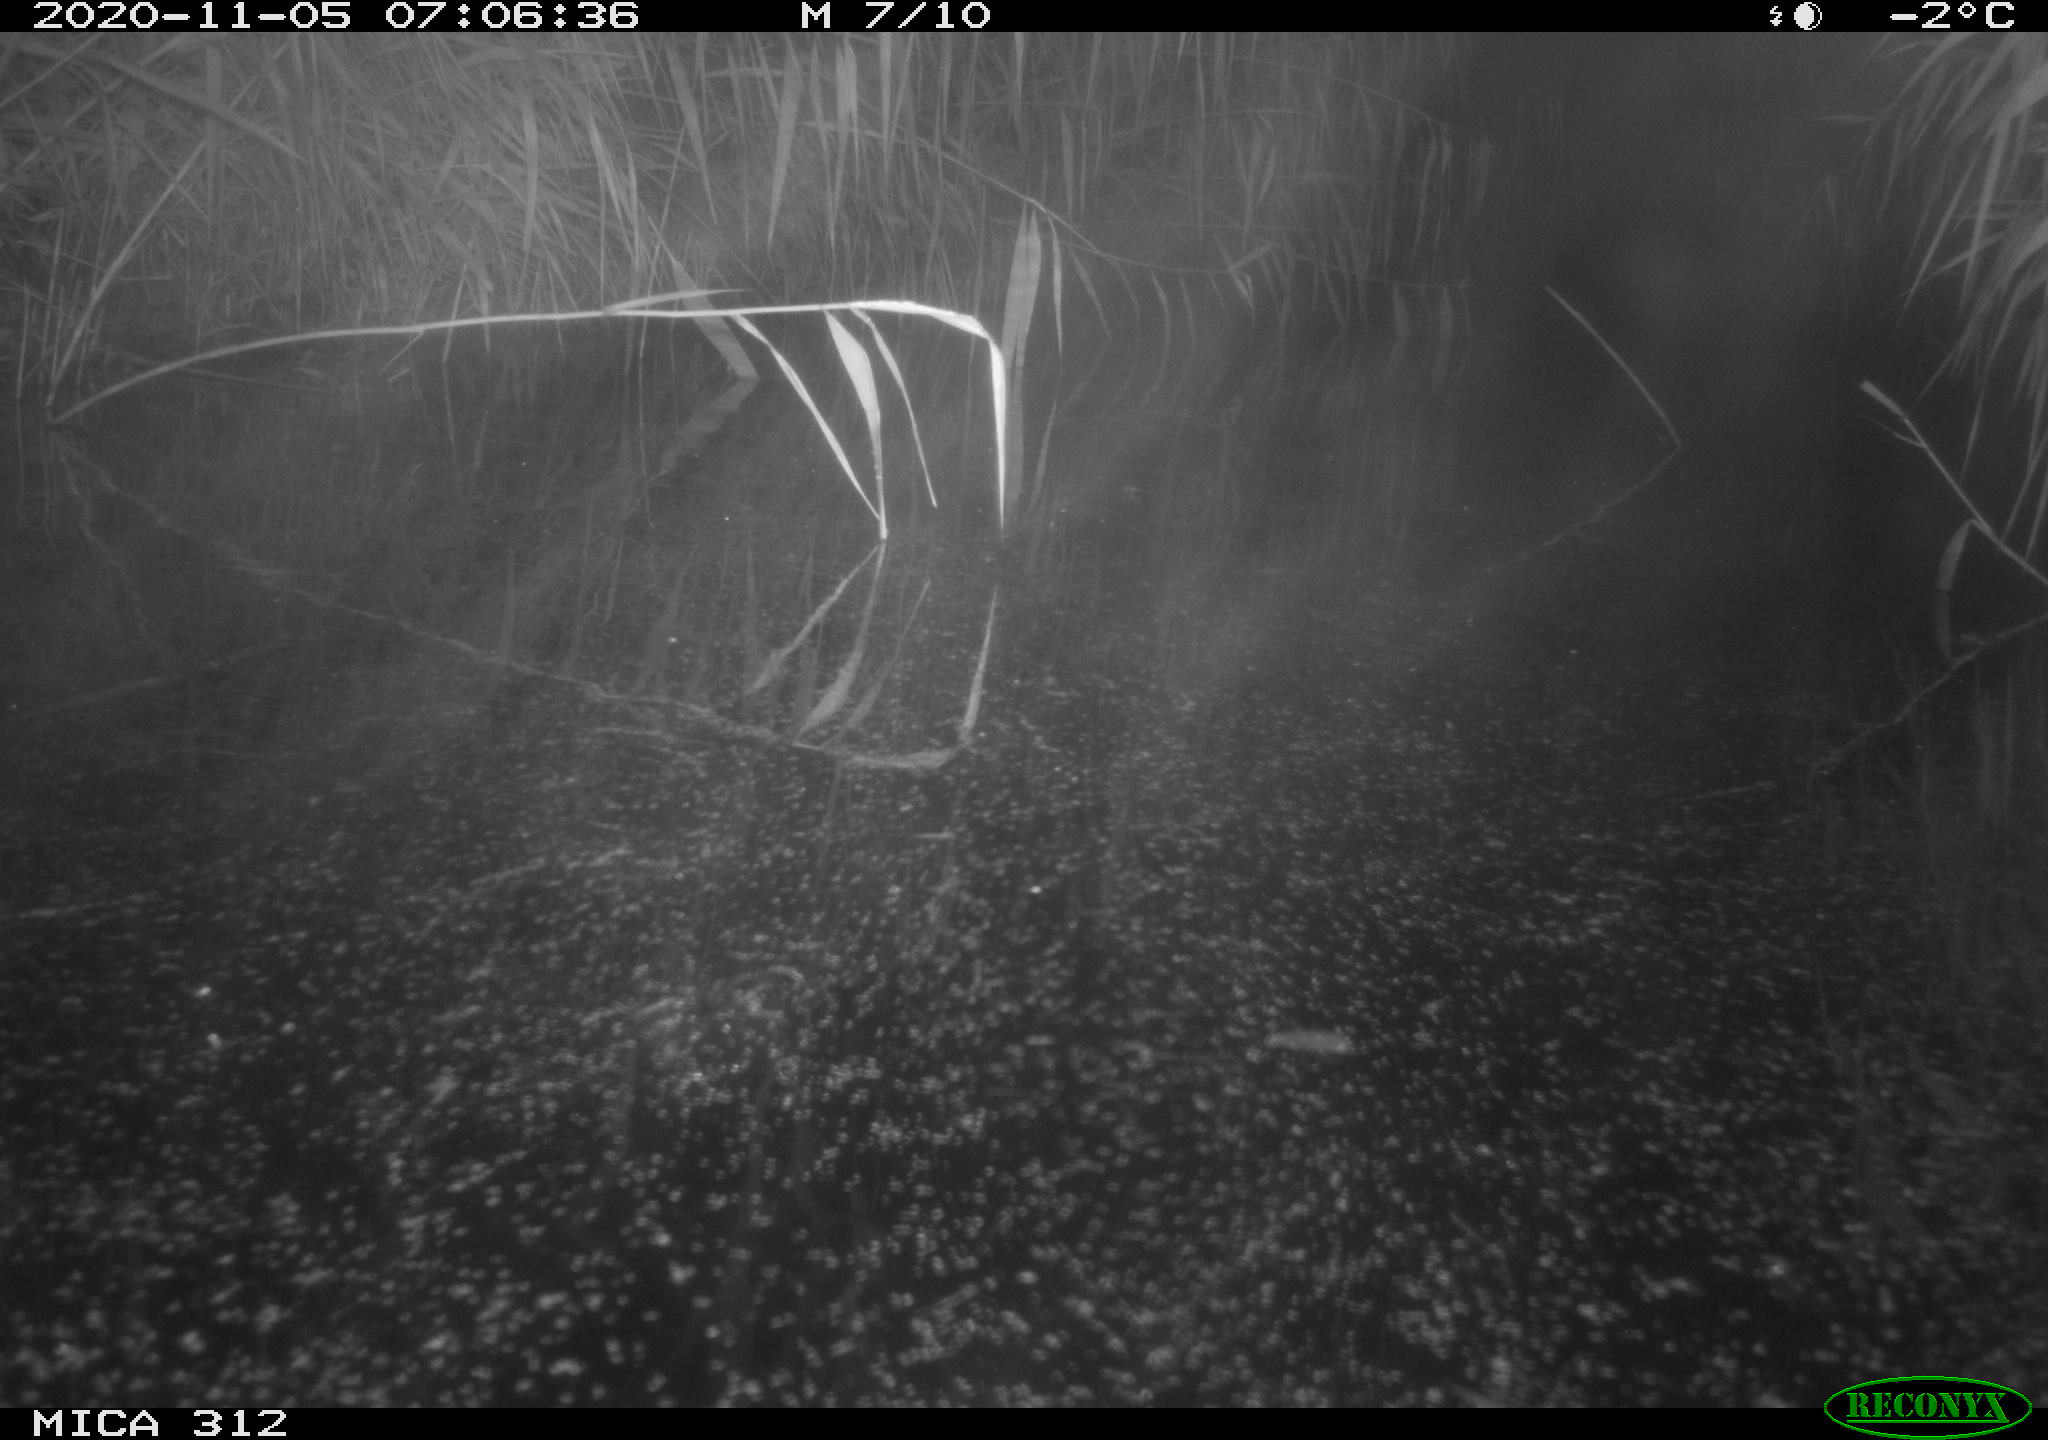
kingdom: Animalia
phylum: Chordata
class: Mammalia
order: Rodentia
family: Muridae
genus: Rattus
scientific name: Rattus norvegicus
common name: Brown rat
